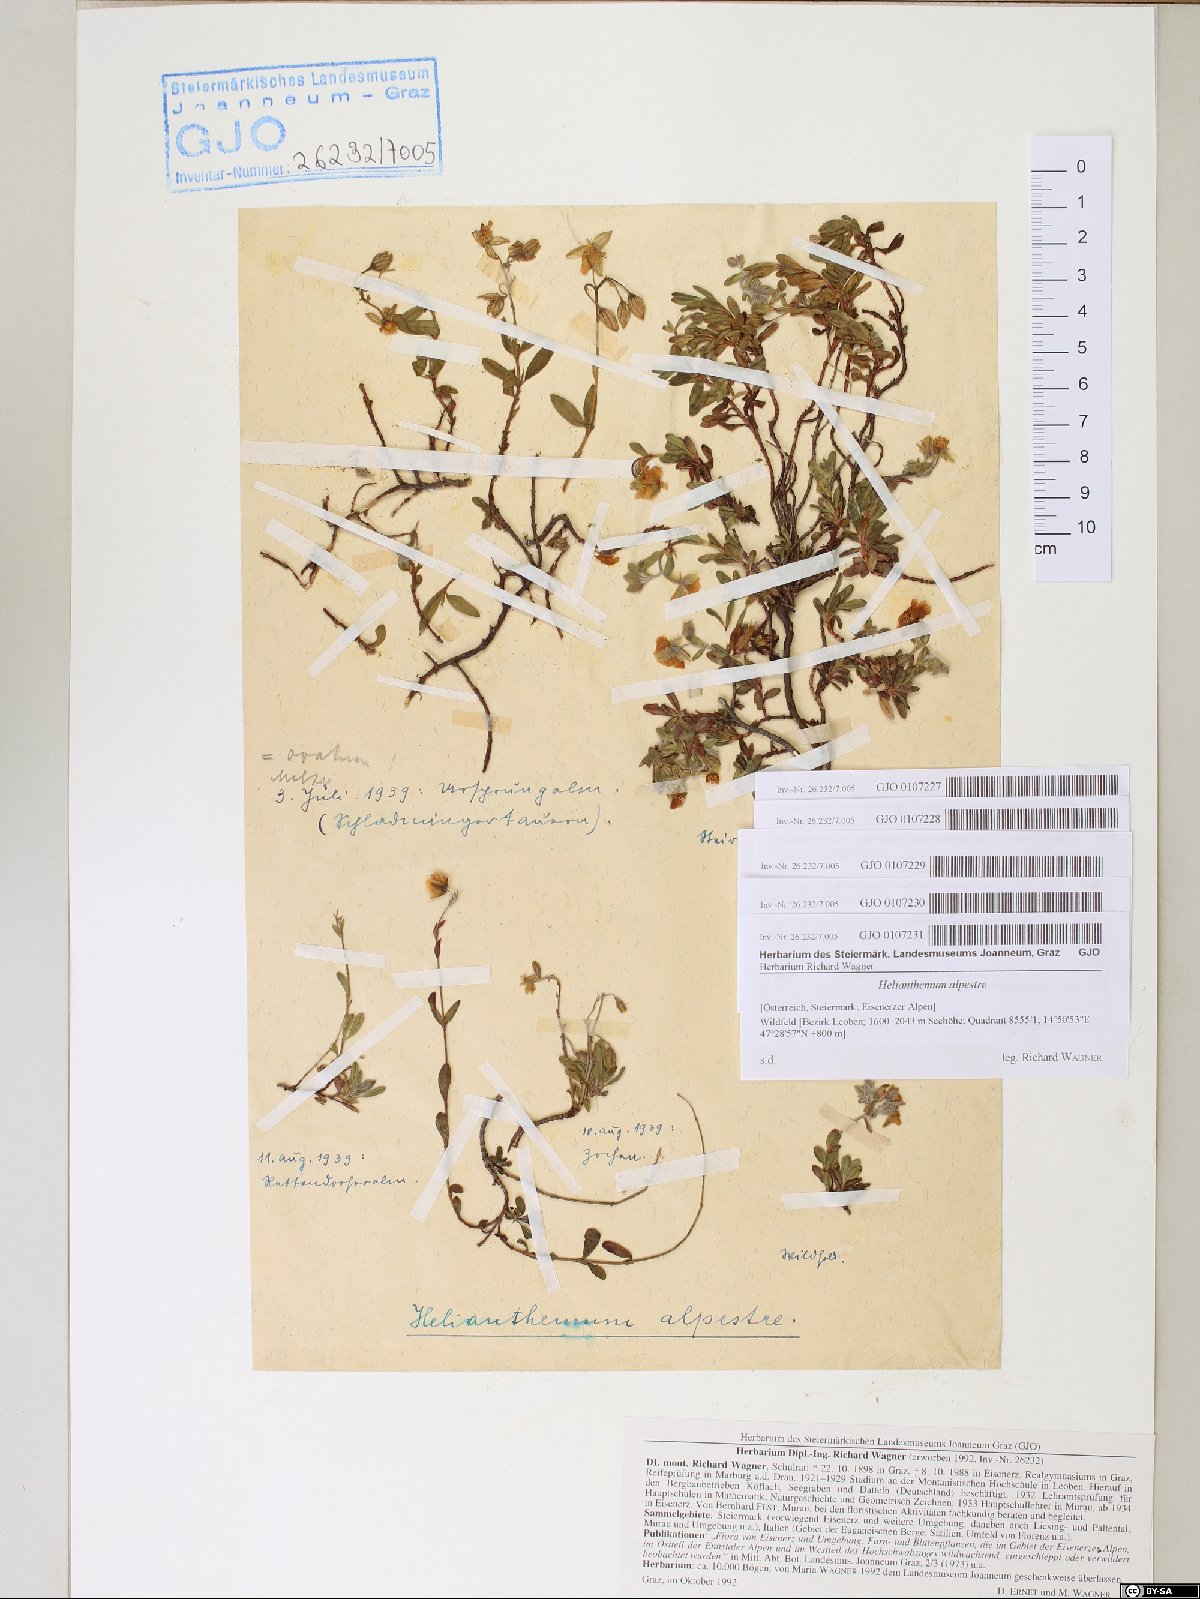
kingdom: Plantae
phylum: Tracheophyta
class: Magnoliopsida
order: Malvales
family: Cistaceae
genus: Helianthemum
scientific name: Helianthemum alpestre
